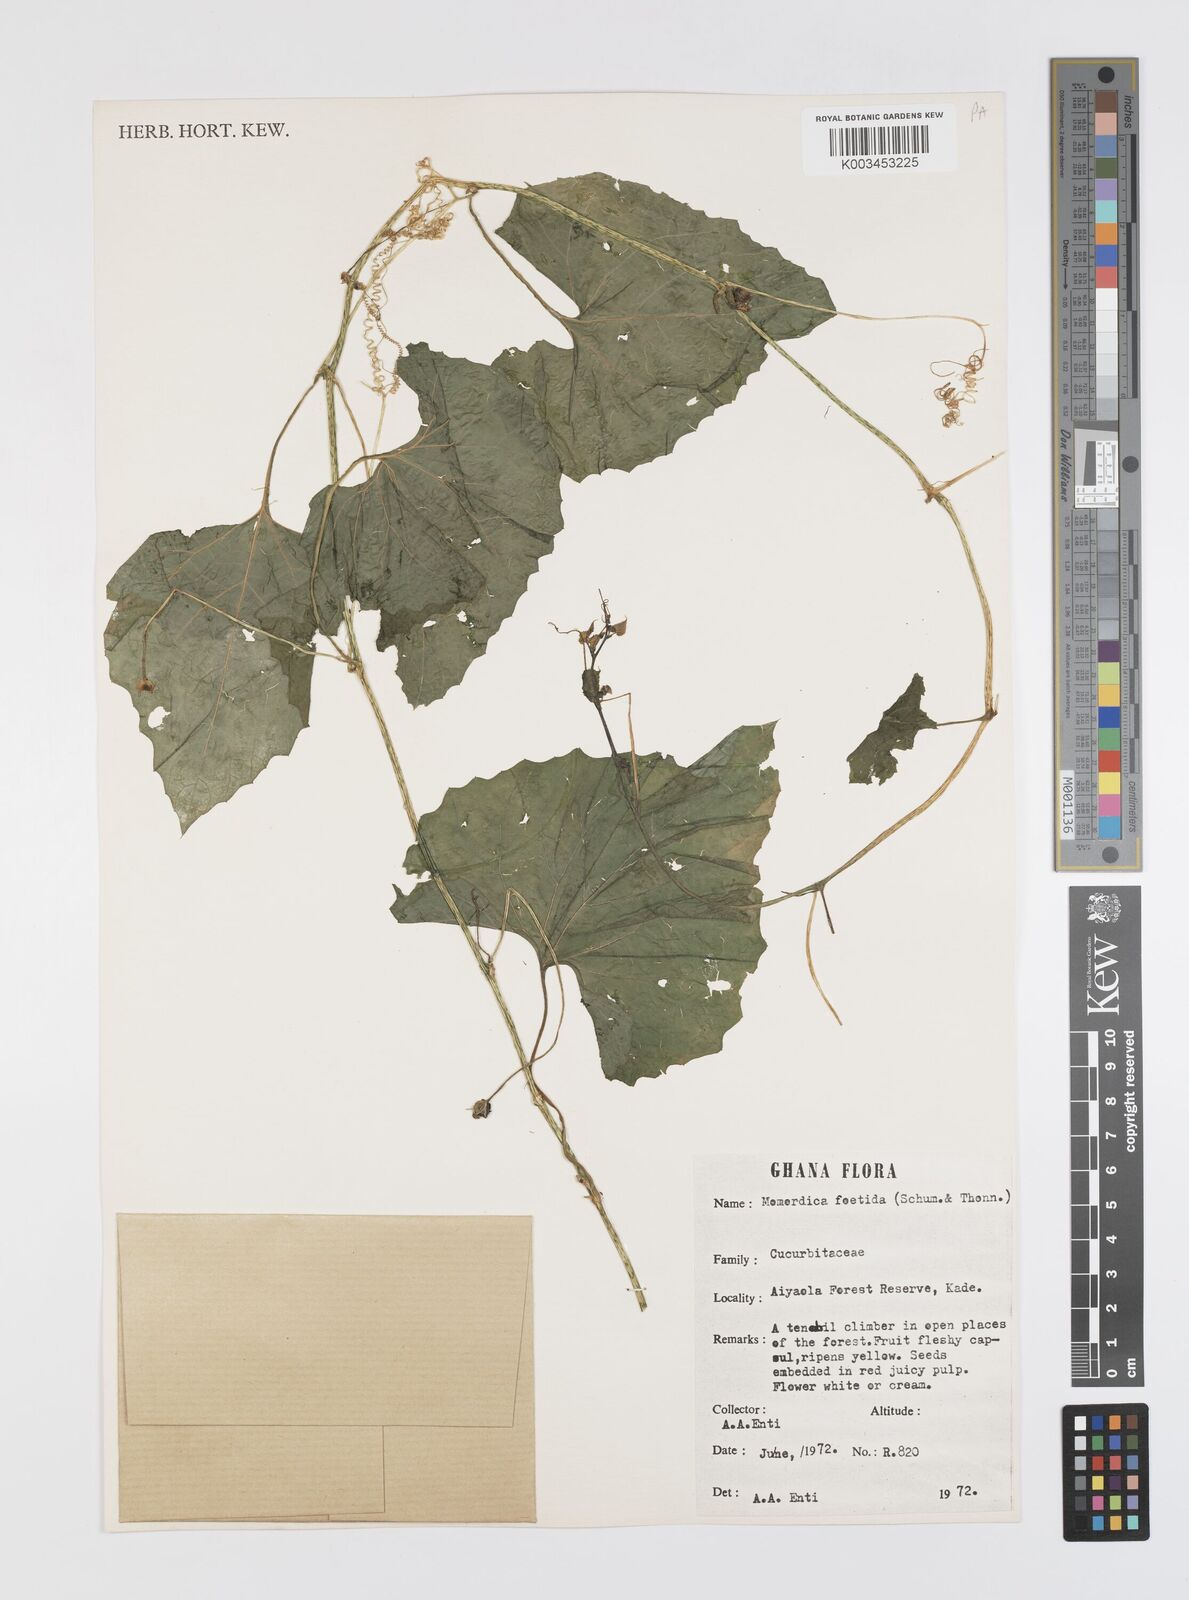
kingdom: Plantae
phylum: Tracheophyta
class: Magnoliopsida
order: Cucurbitales
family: Cucurbitaceae
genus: Momordica
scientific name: Momordica foetida
